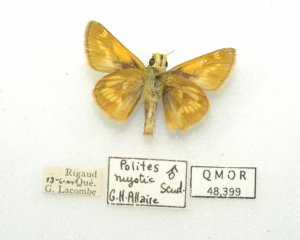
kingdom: Animalia
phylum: Arthropoda
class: Insecta
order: Lepidoptera
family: Hesperiidae
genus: Polites
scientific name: Polites
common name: Long Dash Skipper
